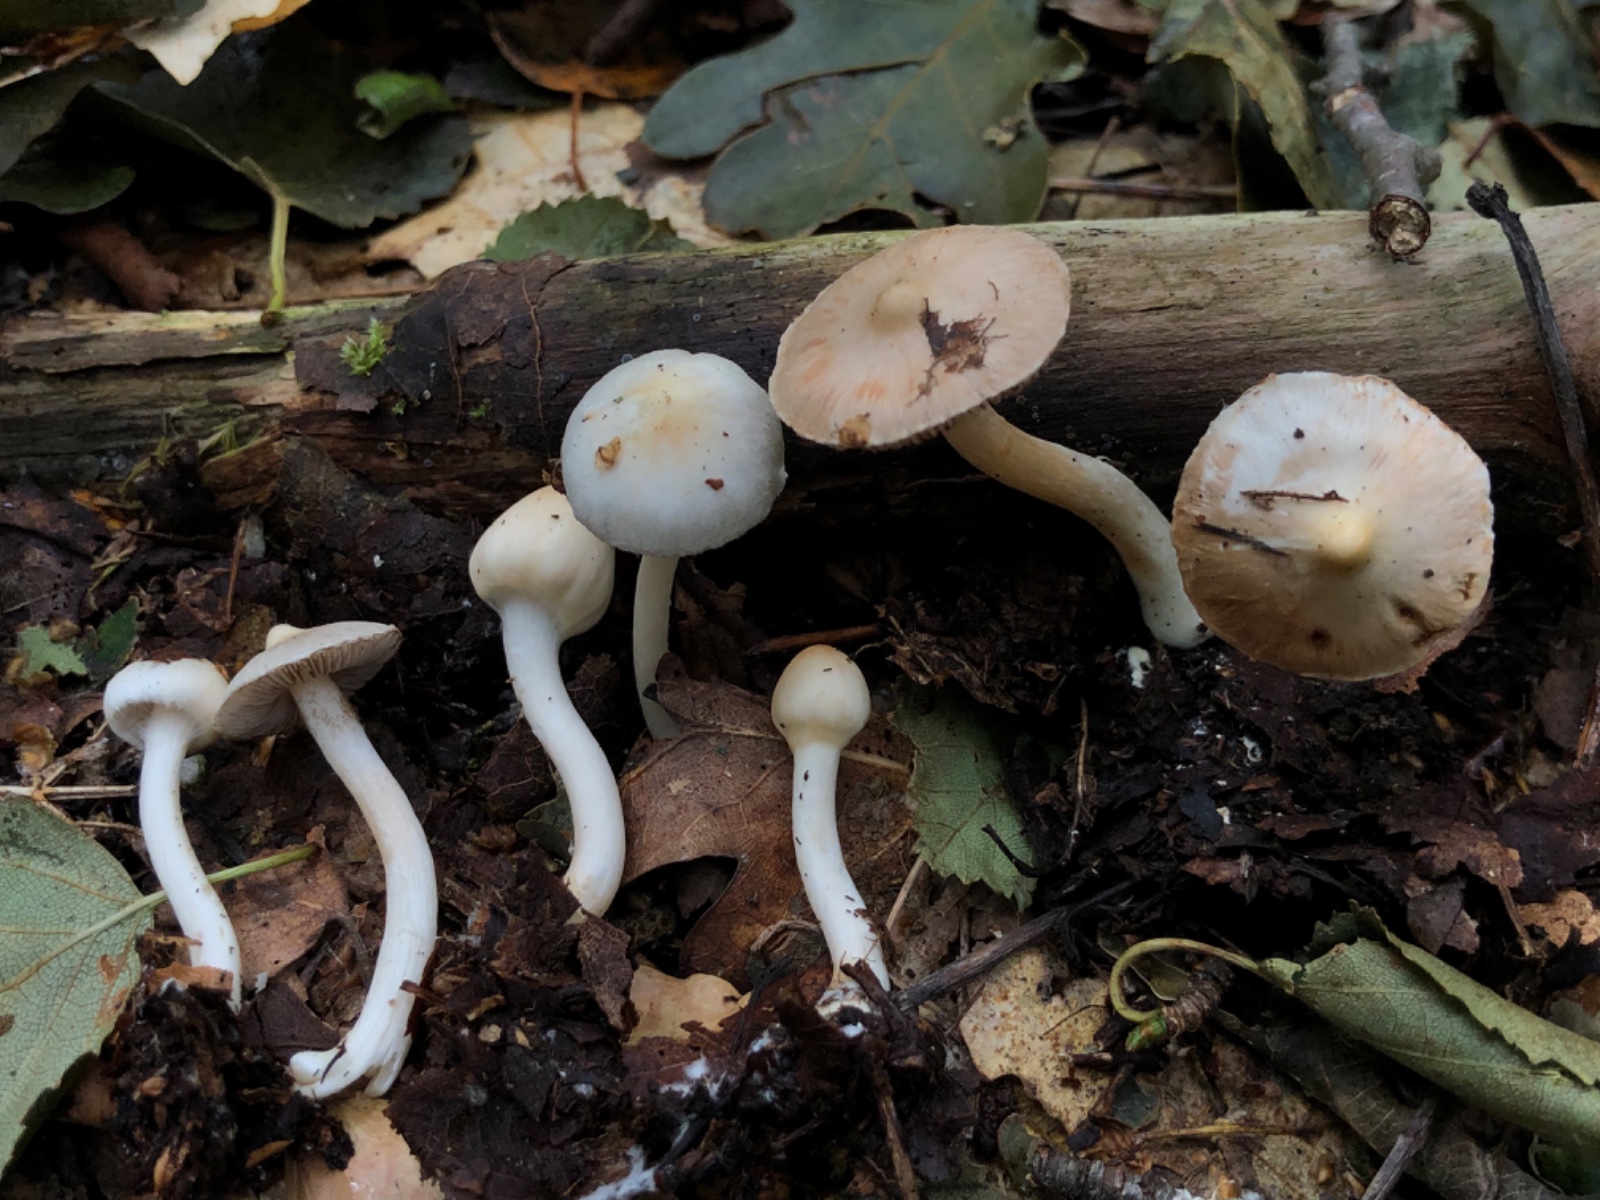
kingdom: Fungi
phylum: Basidiomycota
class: Agaricomycetes
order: Agaricales
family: Inocybaceae
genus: Inocybe
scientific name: Inocybe bellidiana
